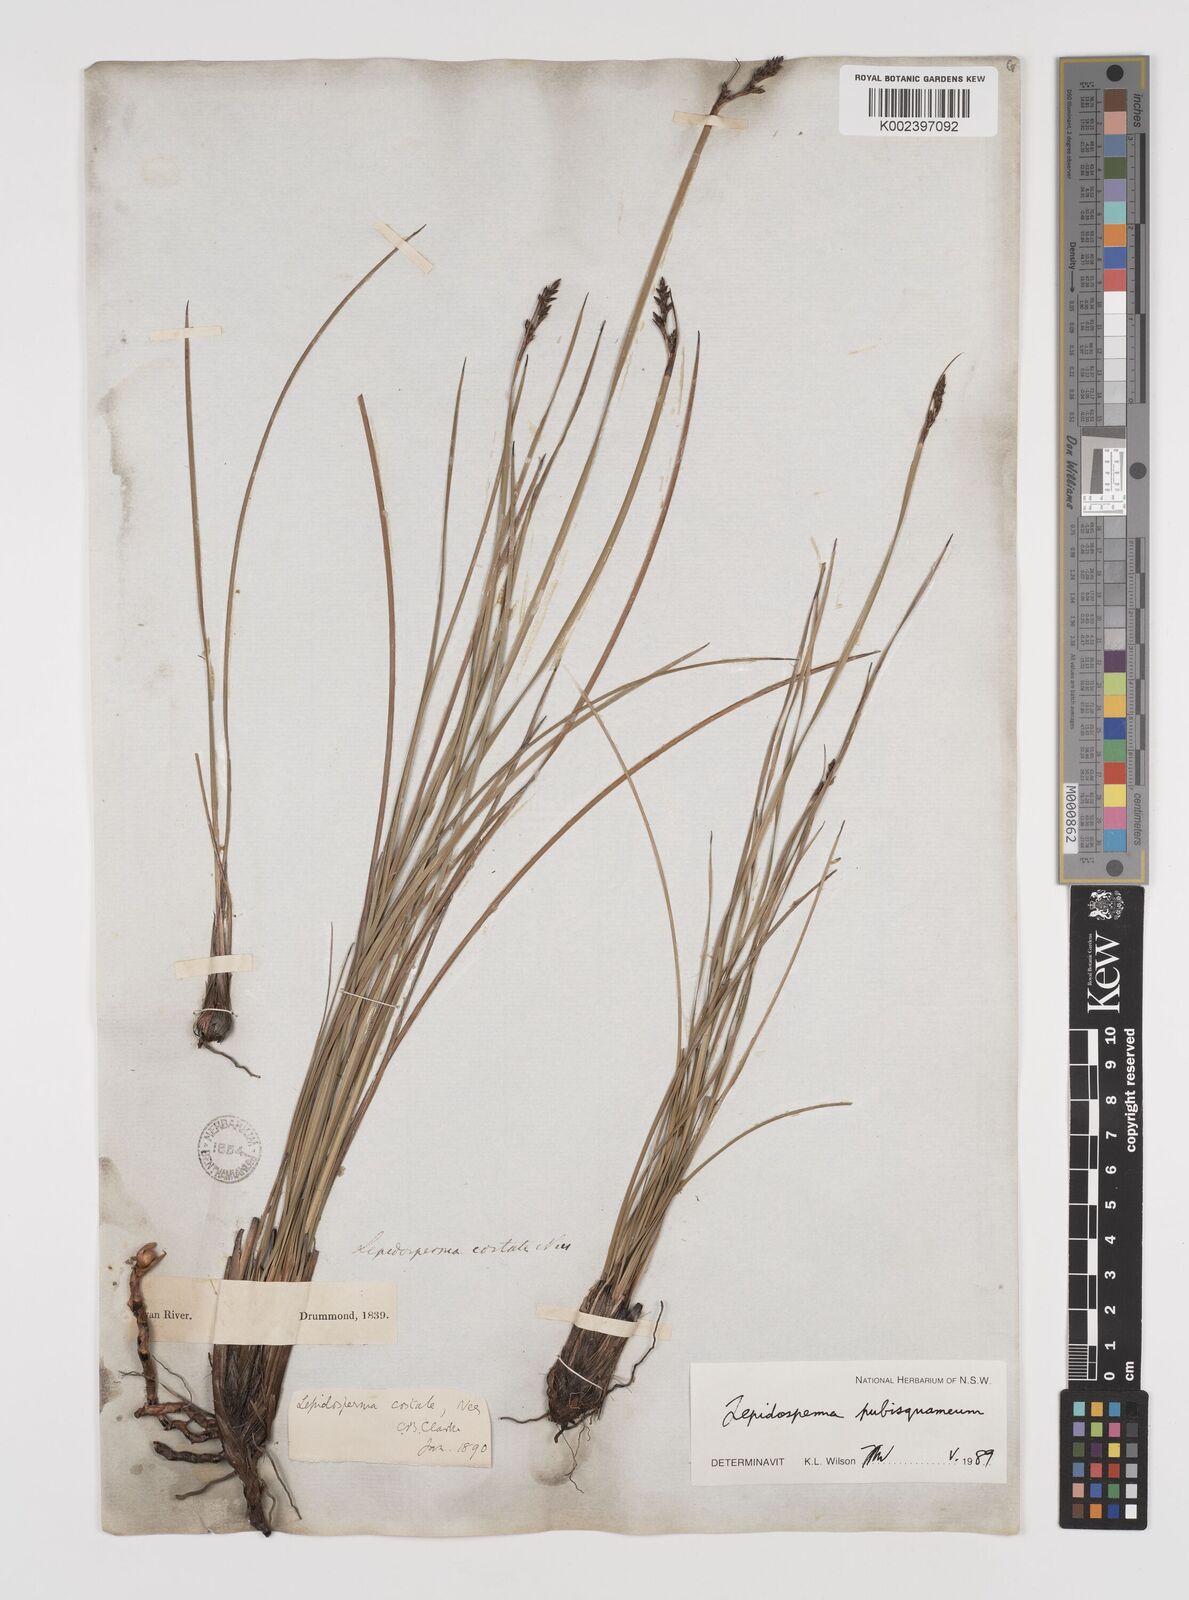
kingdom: Plantae
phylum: Tracheophyta
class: Liliopsida
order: Poales
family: Cyperaceae
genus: Lepidosperma
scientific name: Lepidosperma pubisquameum
